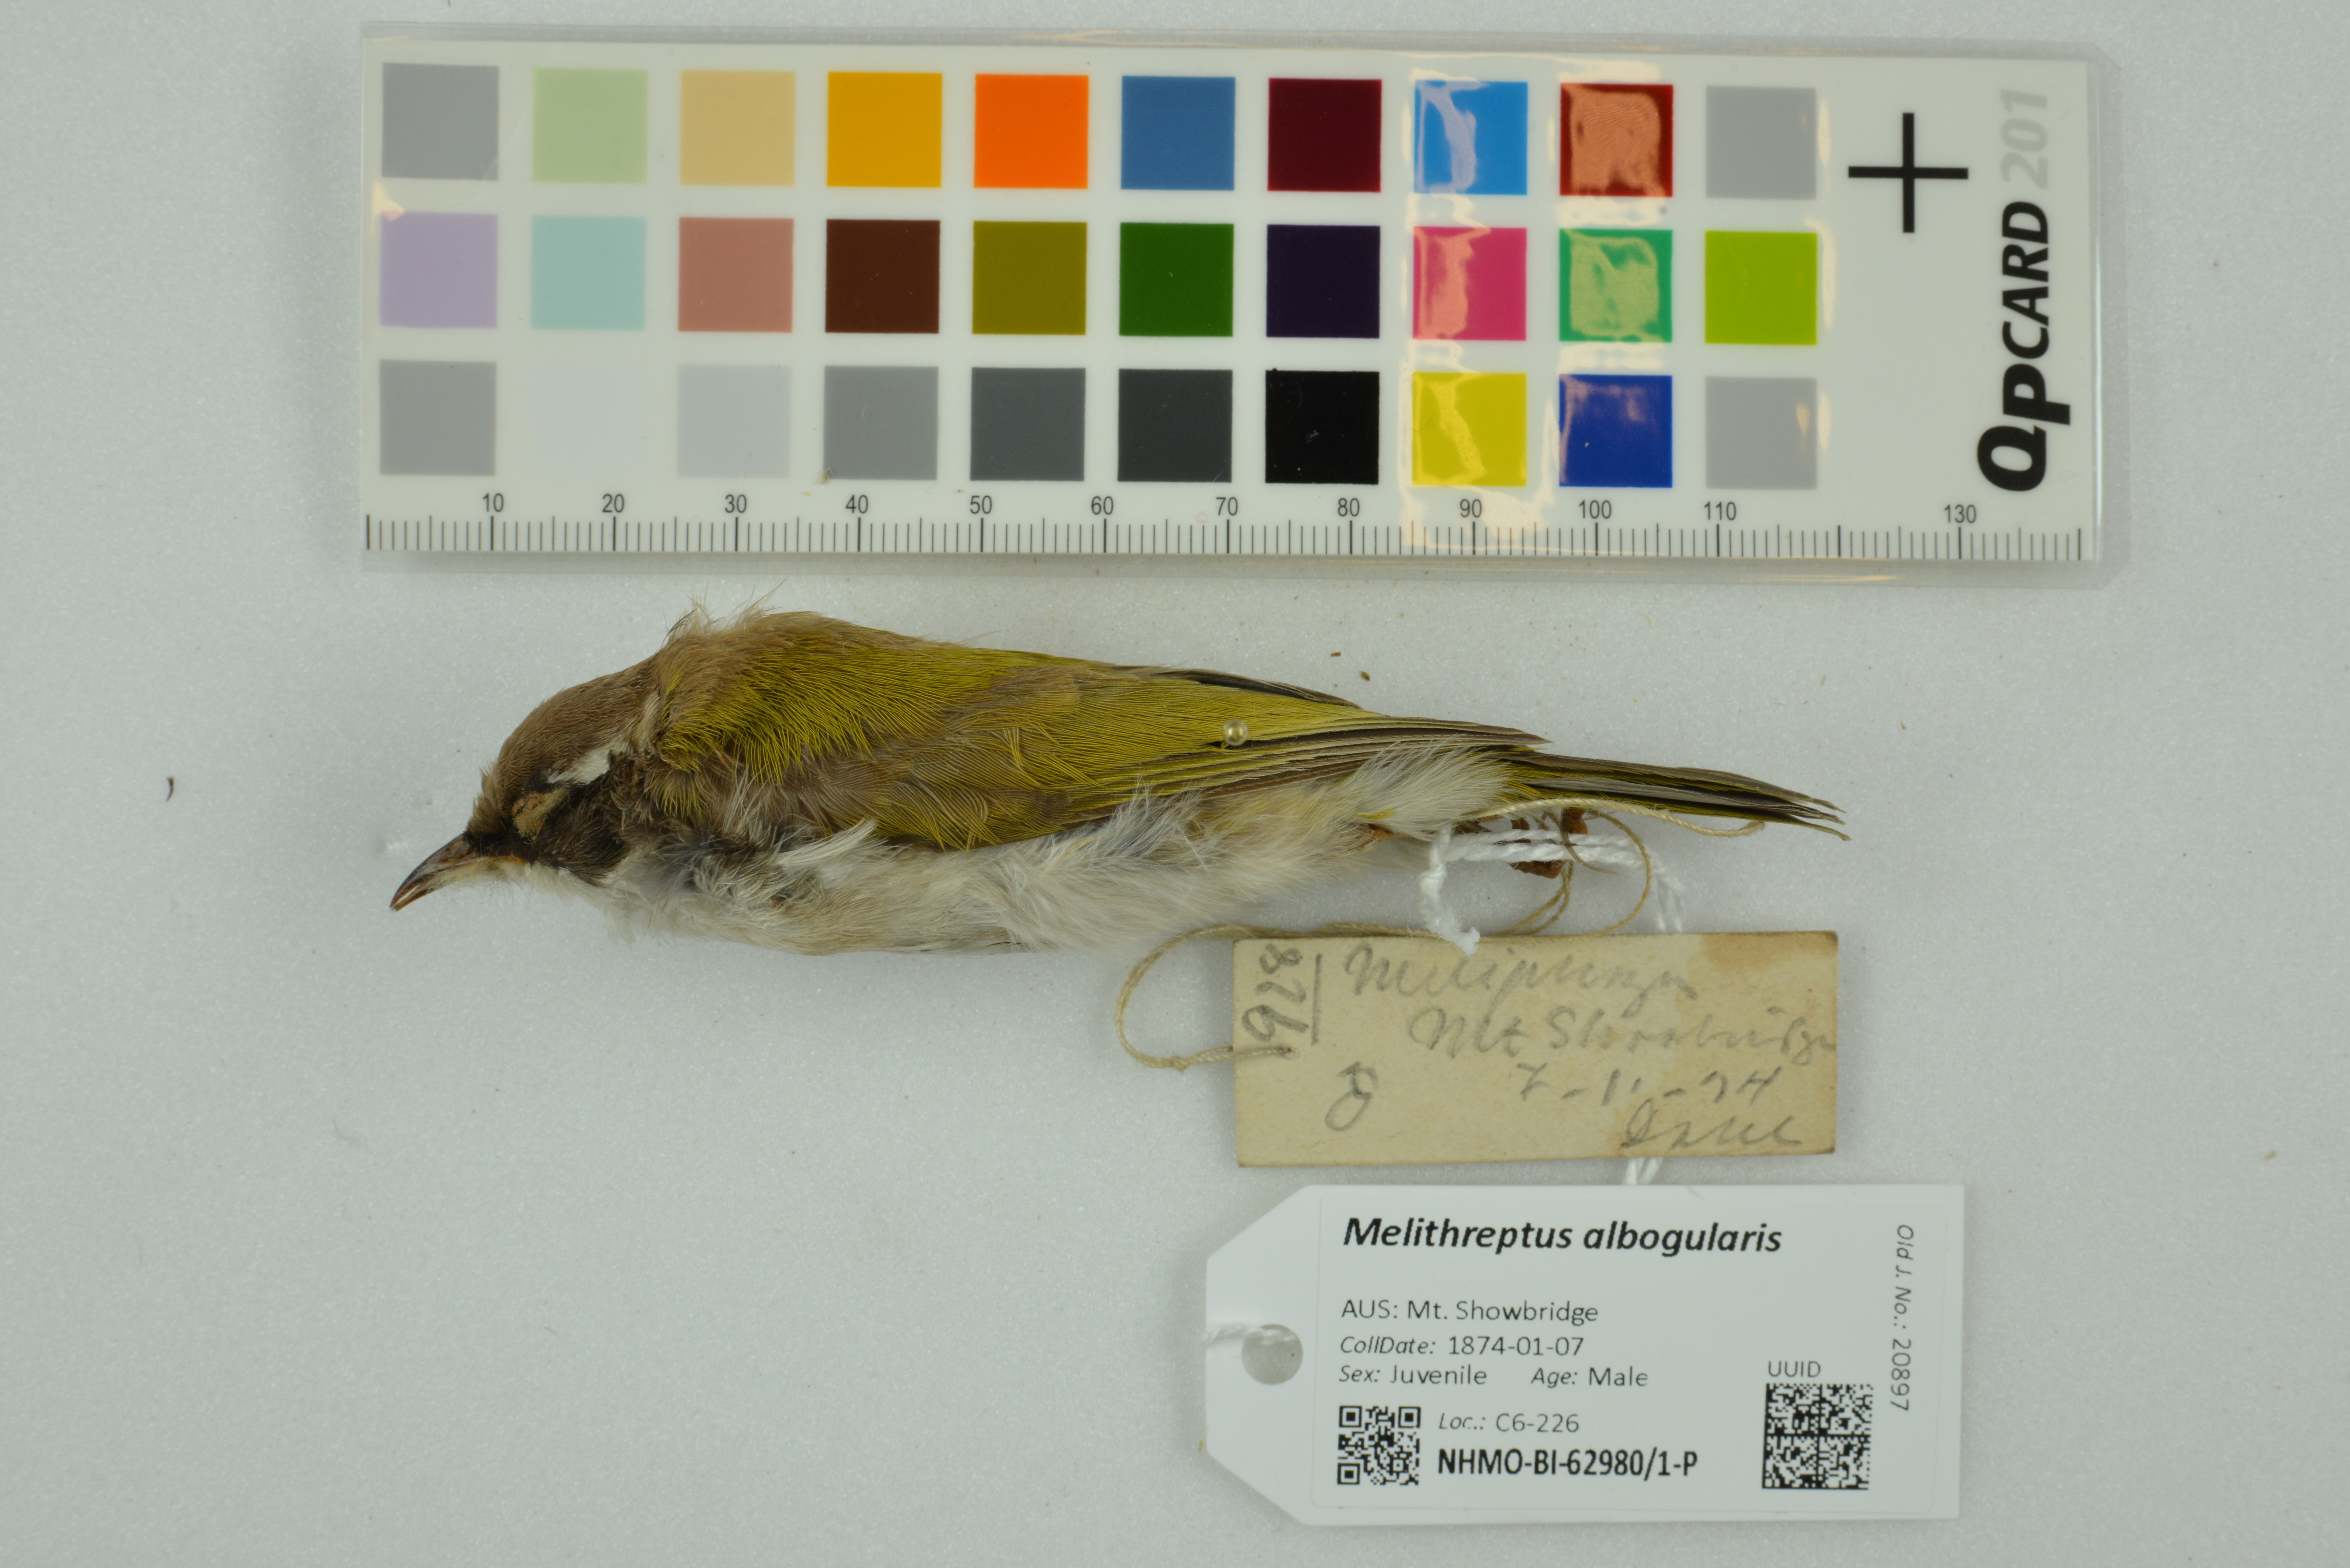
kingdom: Animalia
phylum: Chordata
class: Aves
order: Passeriformes
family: Meliphagidae
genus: Melithreptus
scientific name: Melithreptus albogularis
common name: White-throated honeyeater
